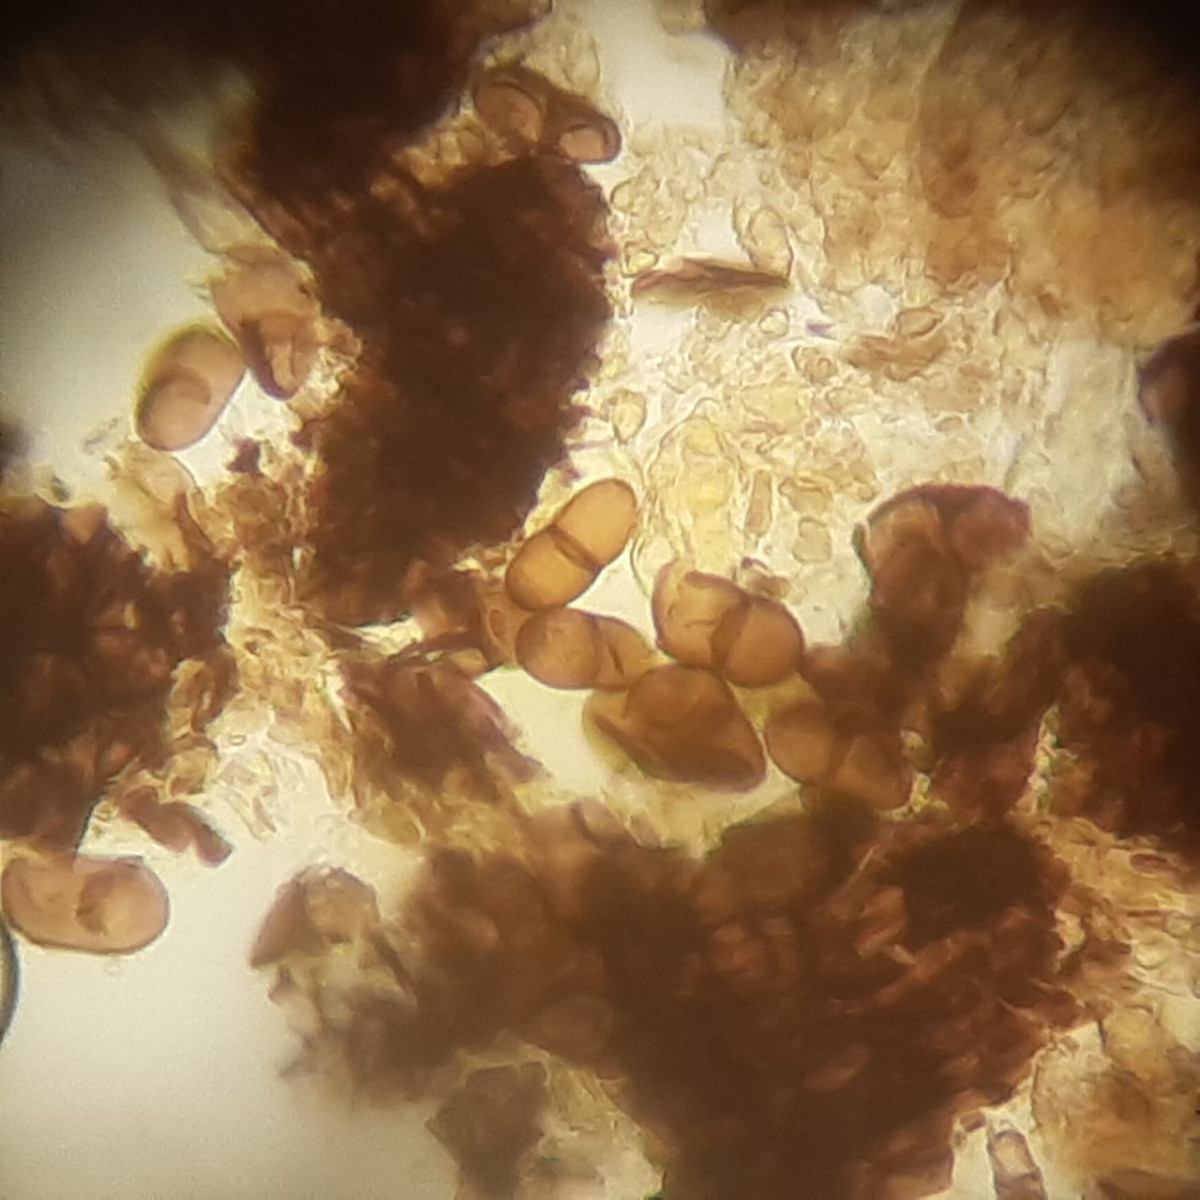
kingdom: Fungi
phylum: Ascomycota
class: Dothideomycetes
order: Botryosphaeriales
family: Botryosphaeriaceae
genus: Diplodia
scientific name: Diplodia mamillana
